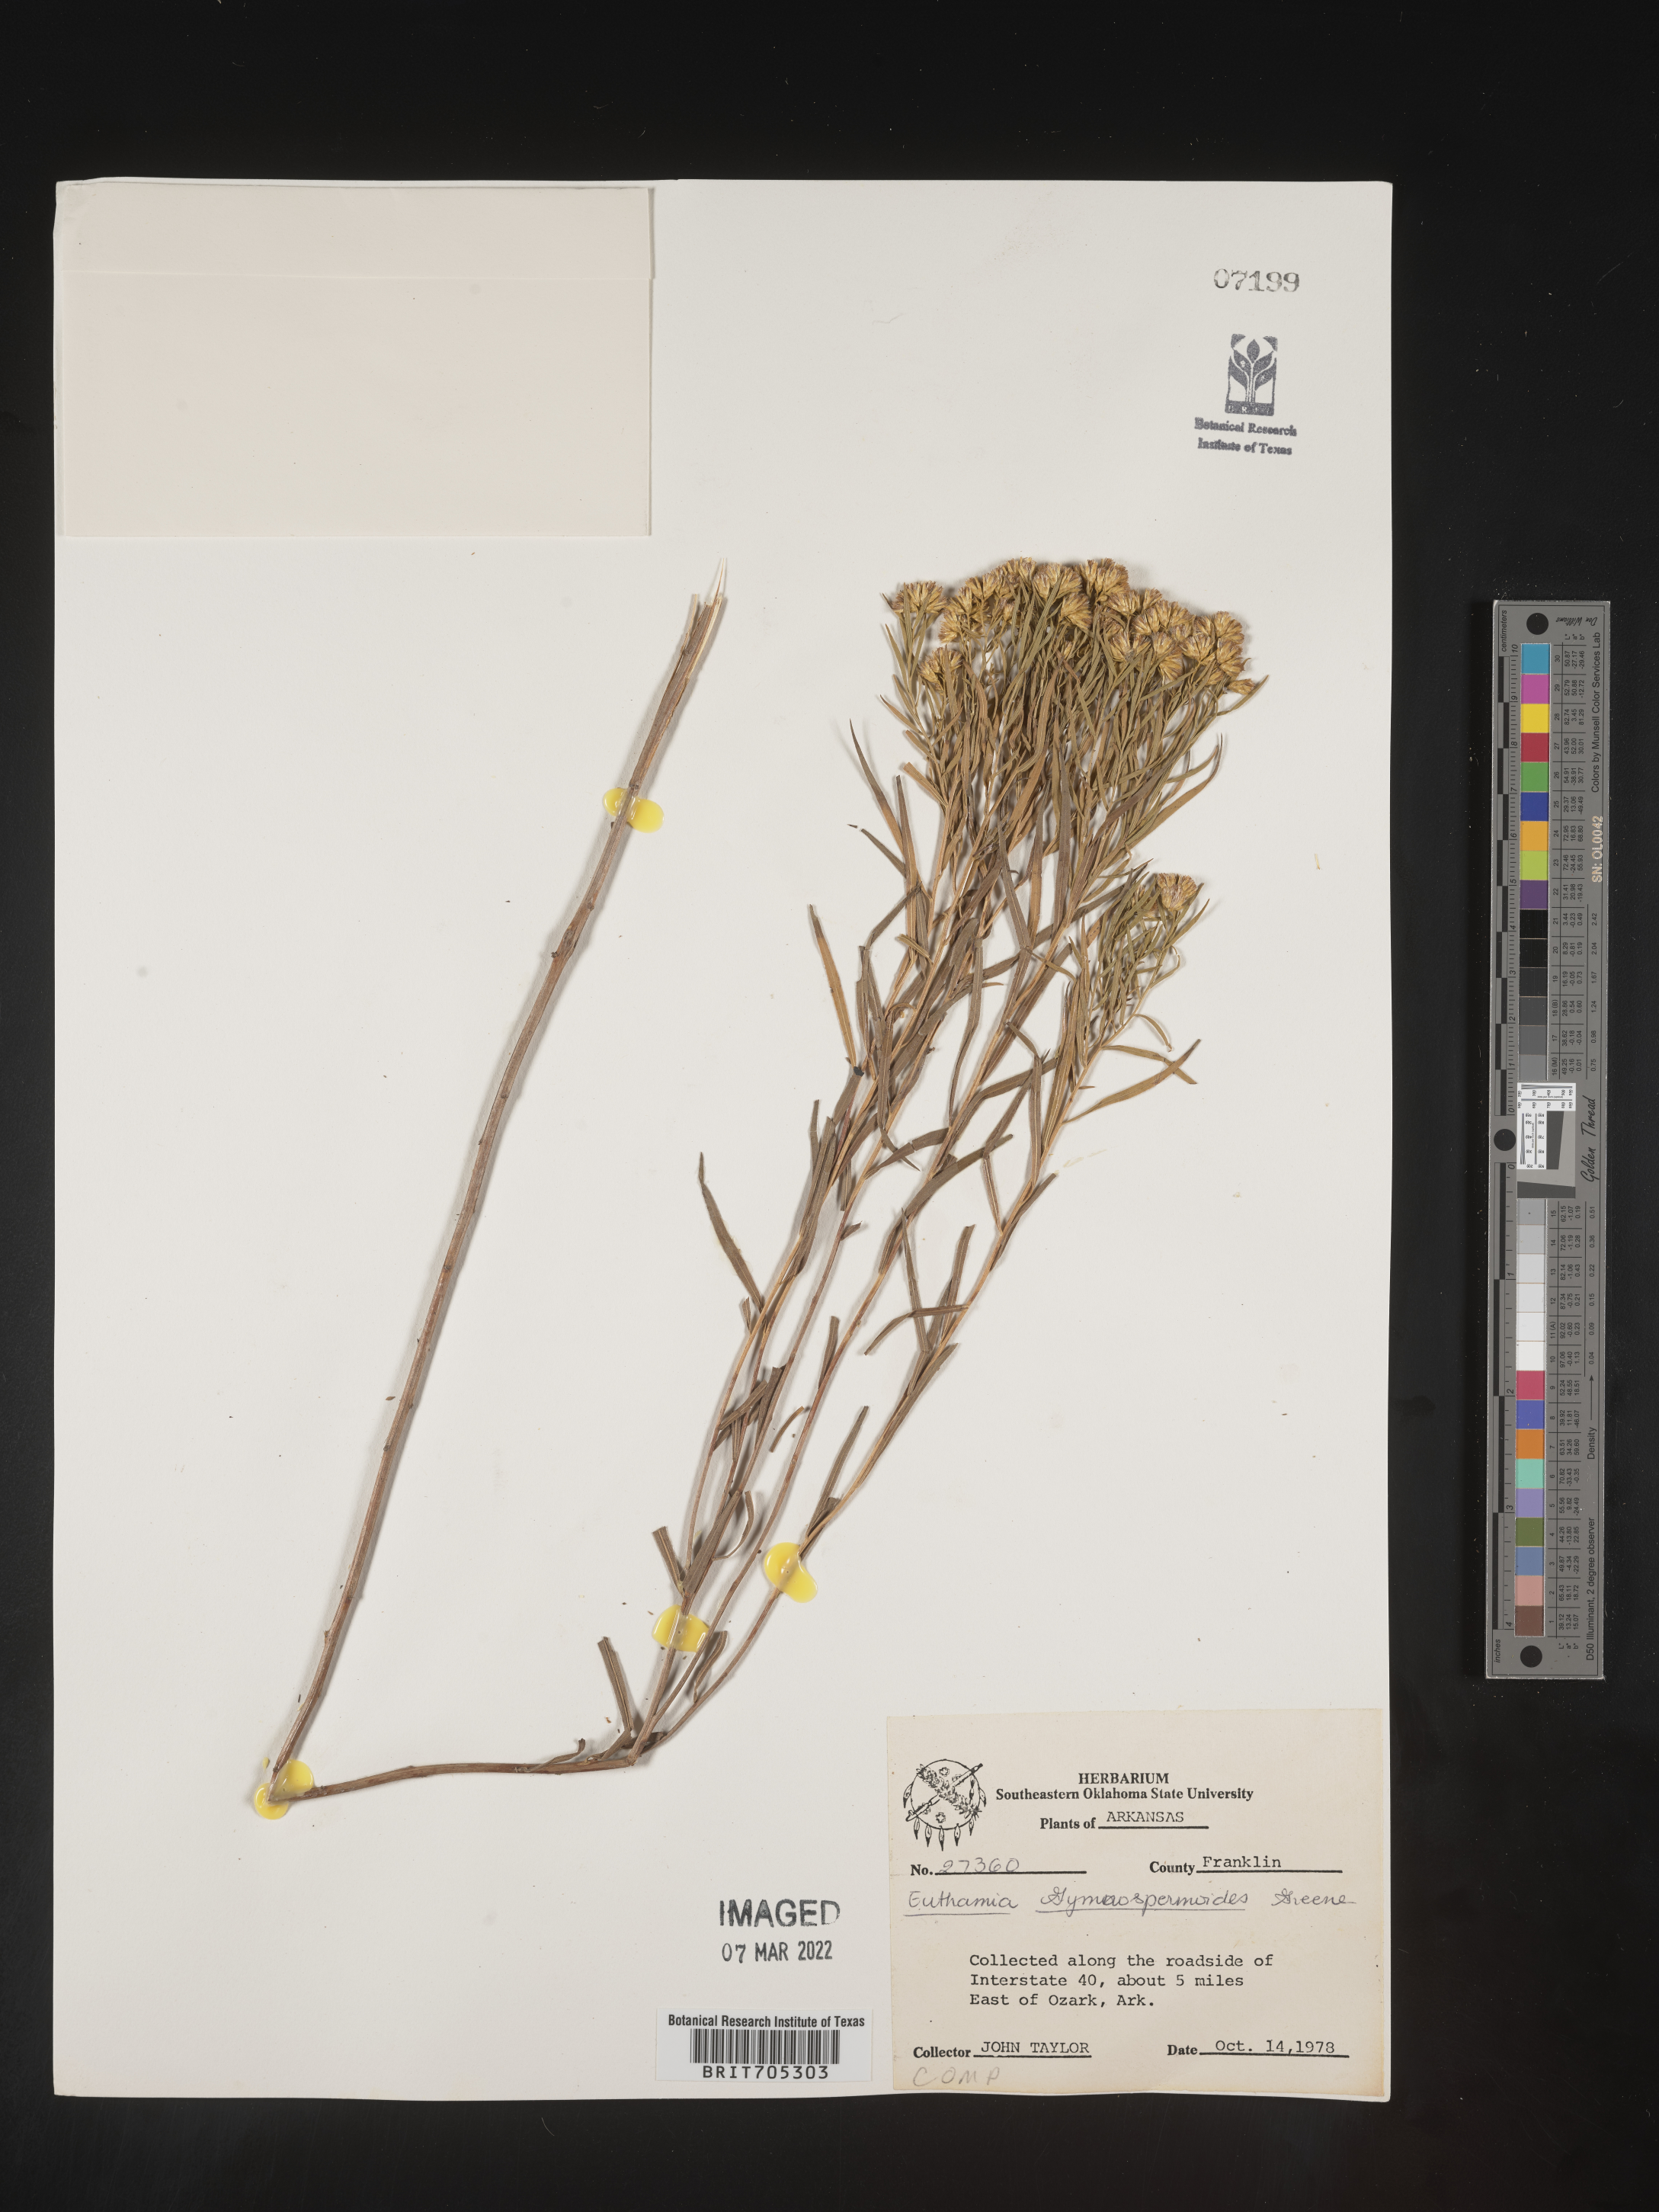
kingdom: Plantae
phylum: Tracheophyta
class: Magnoliopsida
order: Asterales
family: Asteraceae
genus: Euthamia
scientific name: Euthamia gymnospermoides
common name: Great plains goldentop
